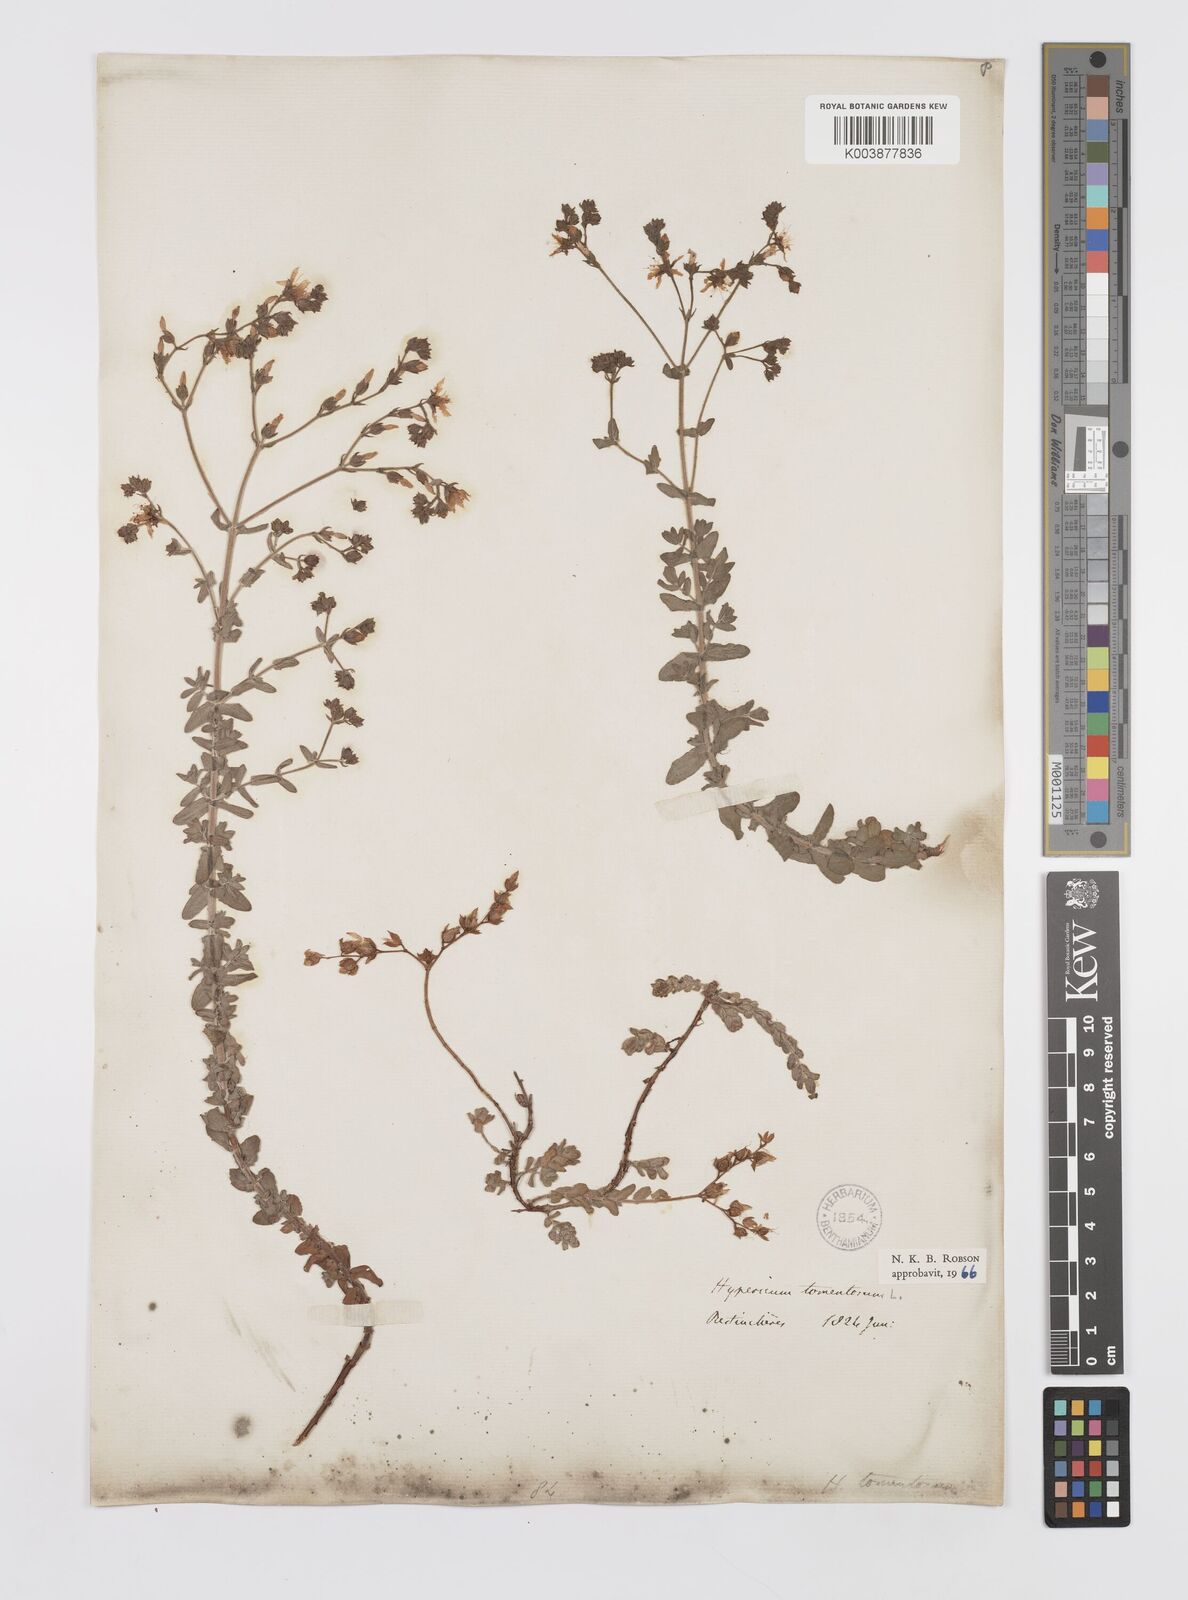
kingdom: Plantae
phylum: Tracheophyta
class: Magnoliopsida
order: Malpighiales
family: Hypericaceae
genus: Hypericum
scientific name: Hypericum tomentosum
